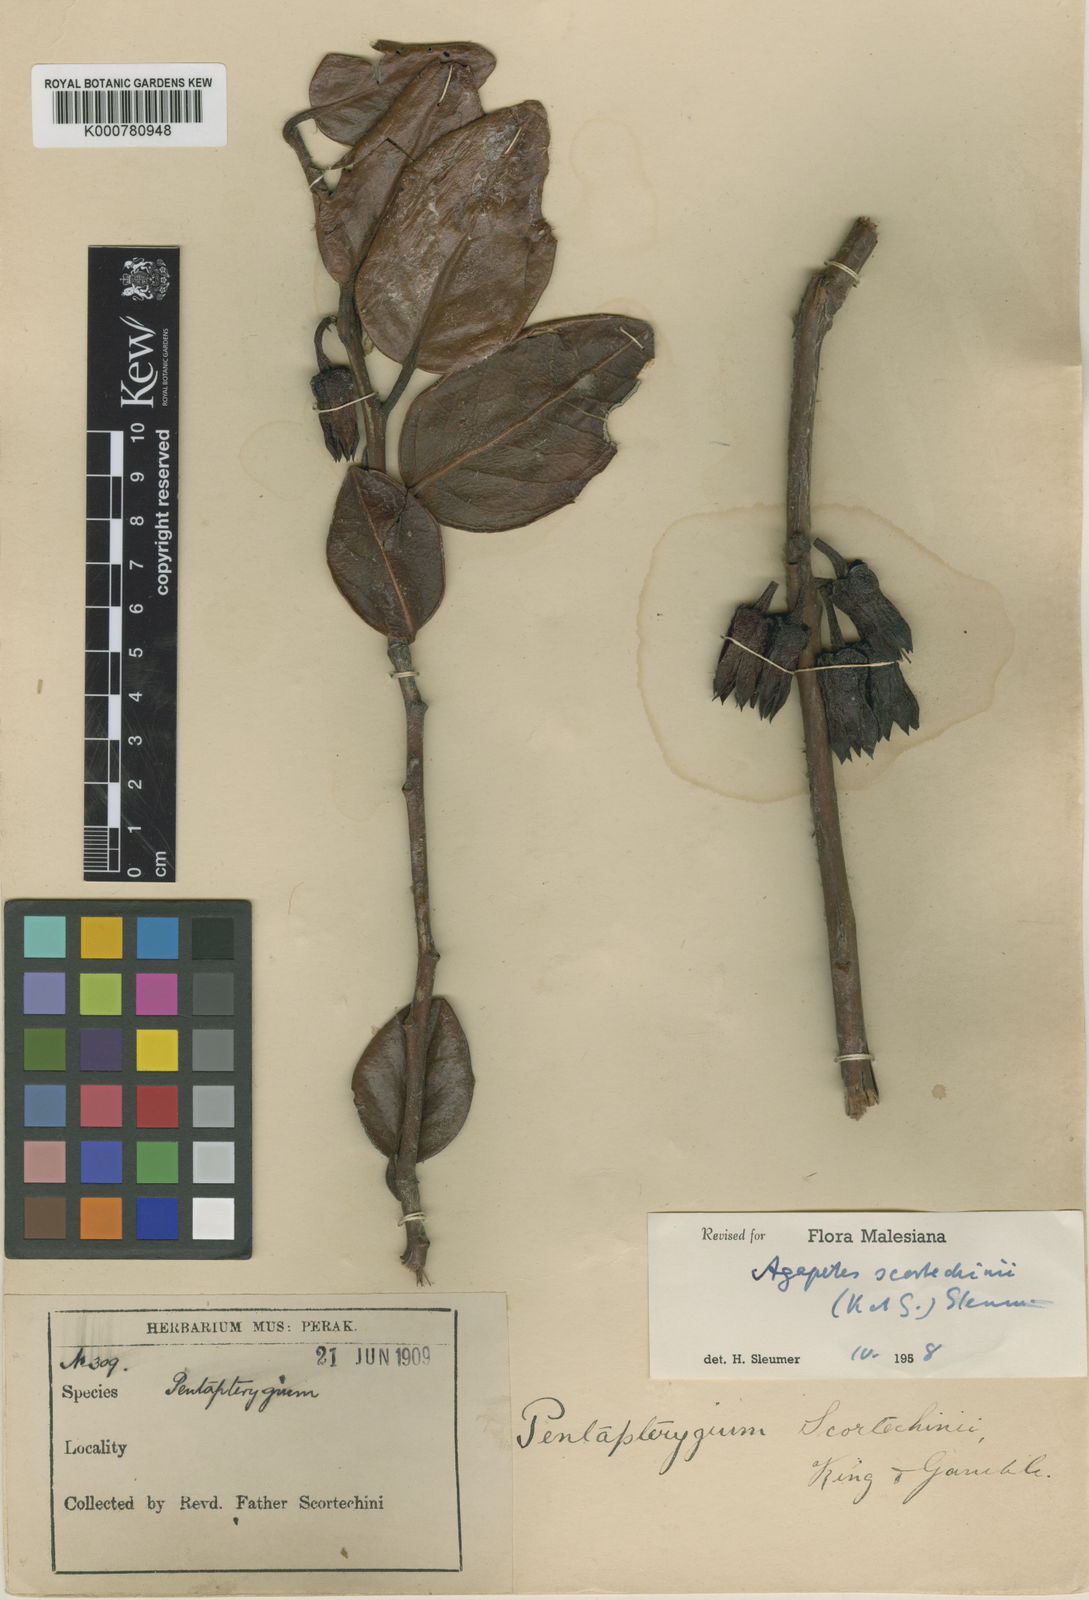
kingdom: Plantae
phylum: Tracheophyta
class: Magnoliopsida
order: Ericales
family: Ericaceae
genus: Agapetes
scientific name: Agapetes scortechinii
